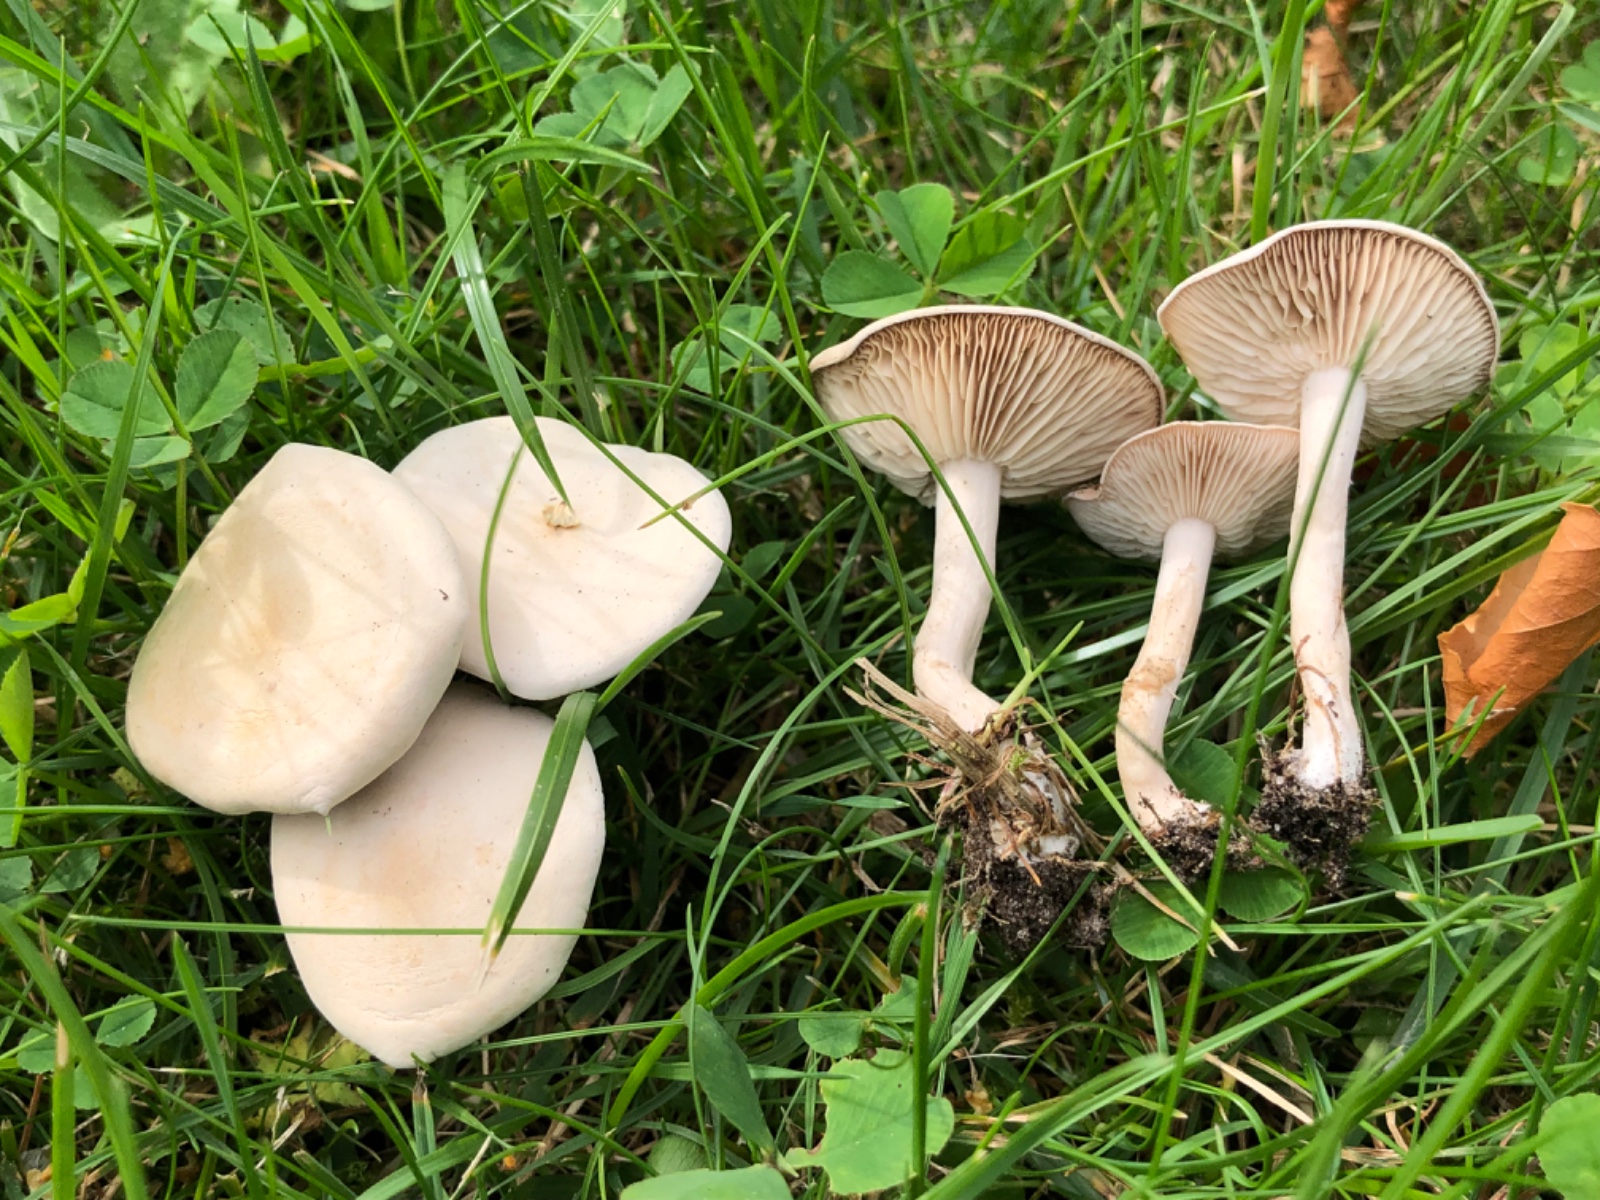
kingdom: Fungi
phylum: Basidiomycota
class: Agaricomycetes
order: Agaricales
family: Tricholomataceae
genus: Clitocybe
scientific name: Clitocybe
